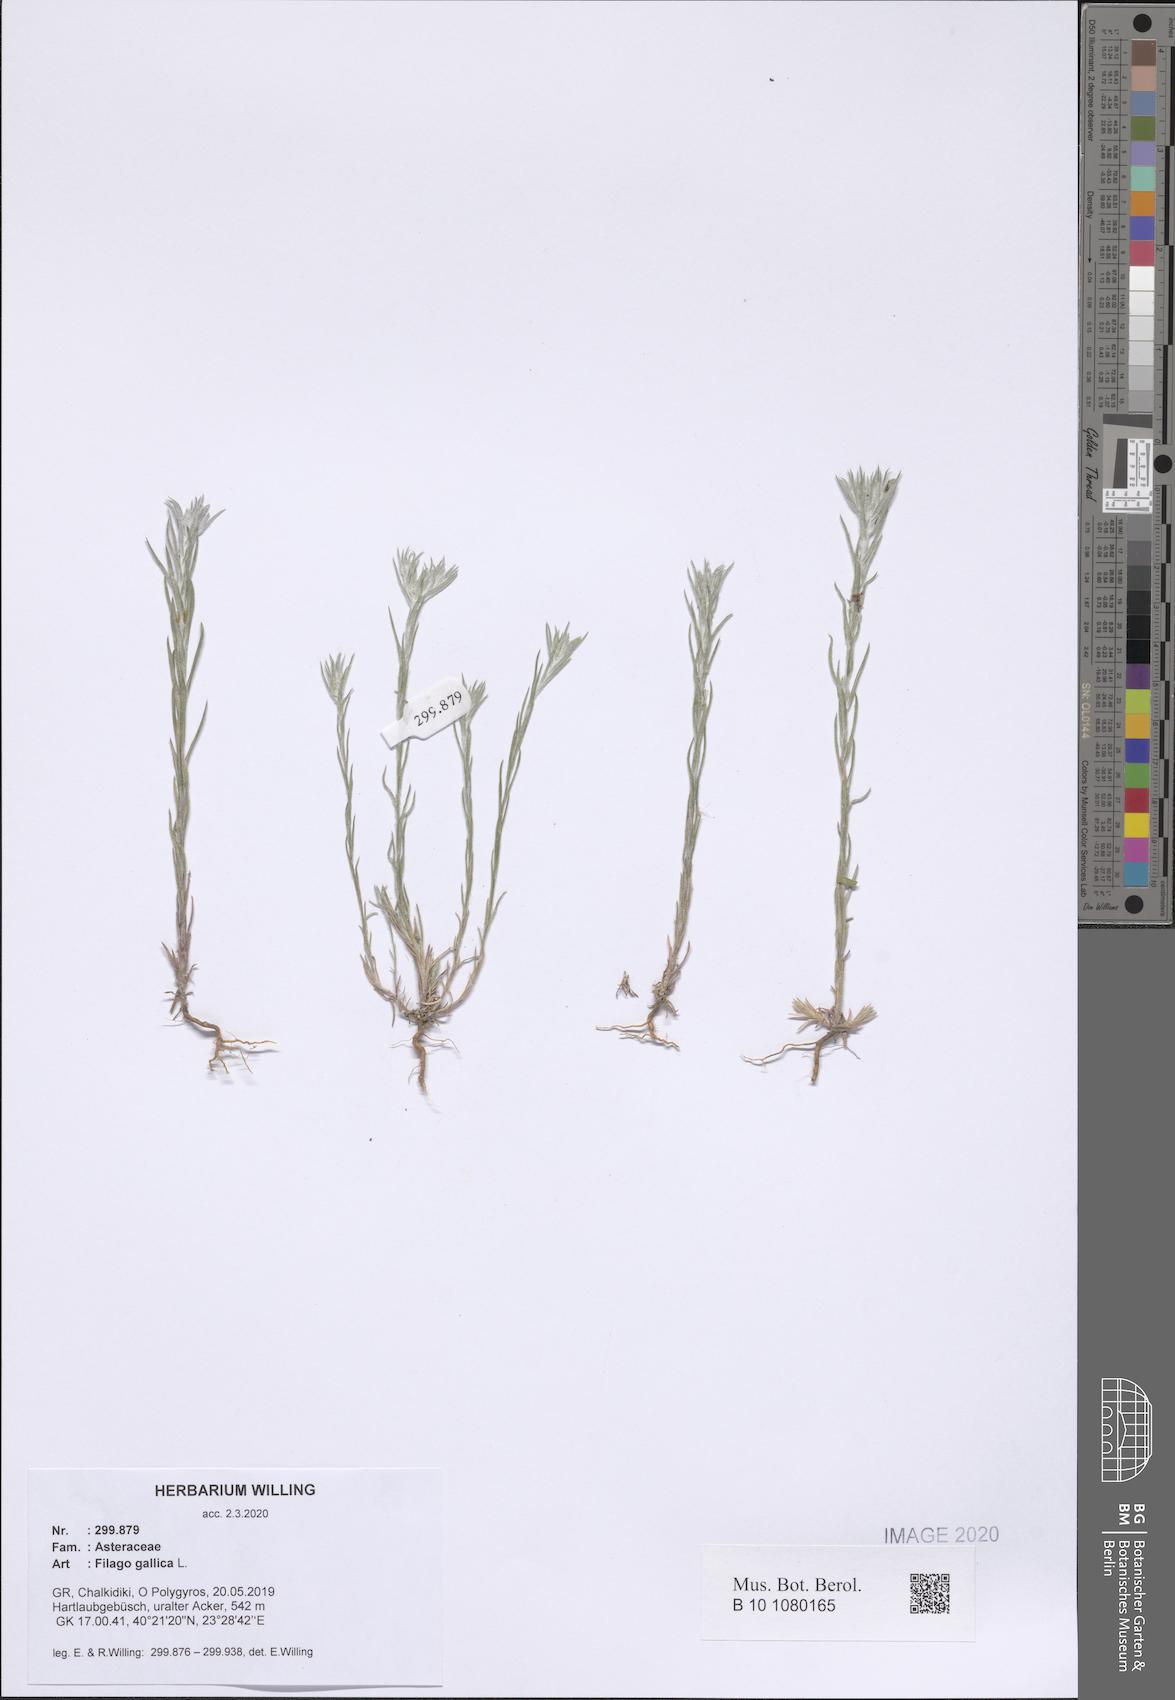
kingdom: Plantae
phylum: Tracheophyta
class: Magnoliopsida
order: Asterales
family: Asteraceae
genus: Logfia
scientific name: Logfia gallica
